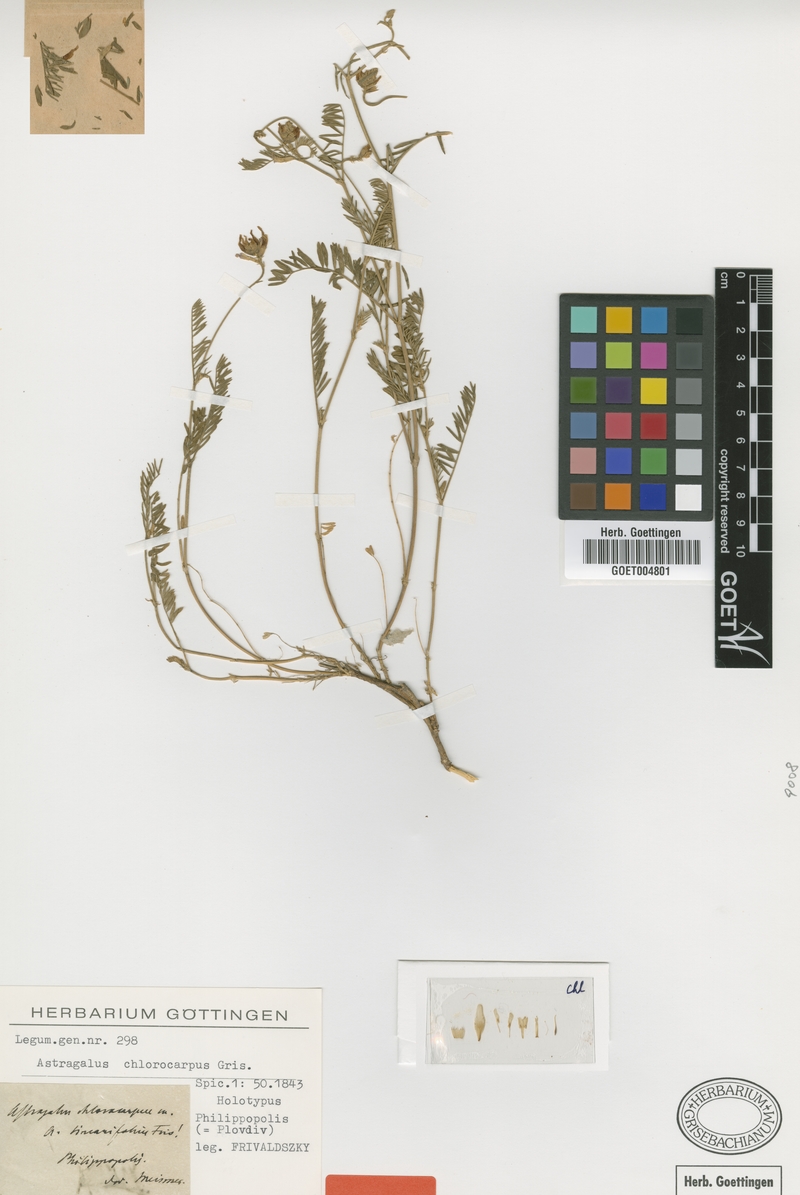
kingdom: Plantae
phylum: Tracheophyta
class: Magnoliopsida
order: Fabales
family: Fabaceae
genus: Astragalus
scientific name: Astragalus onobrychis
